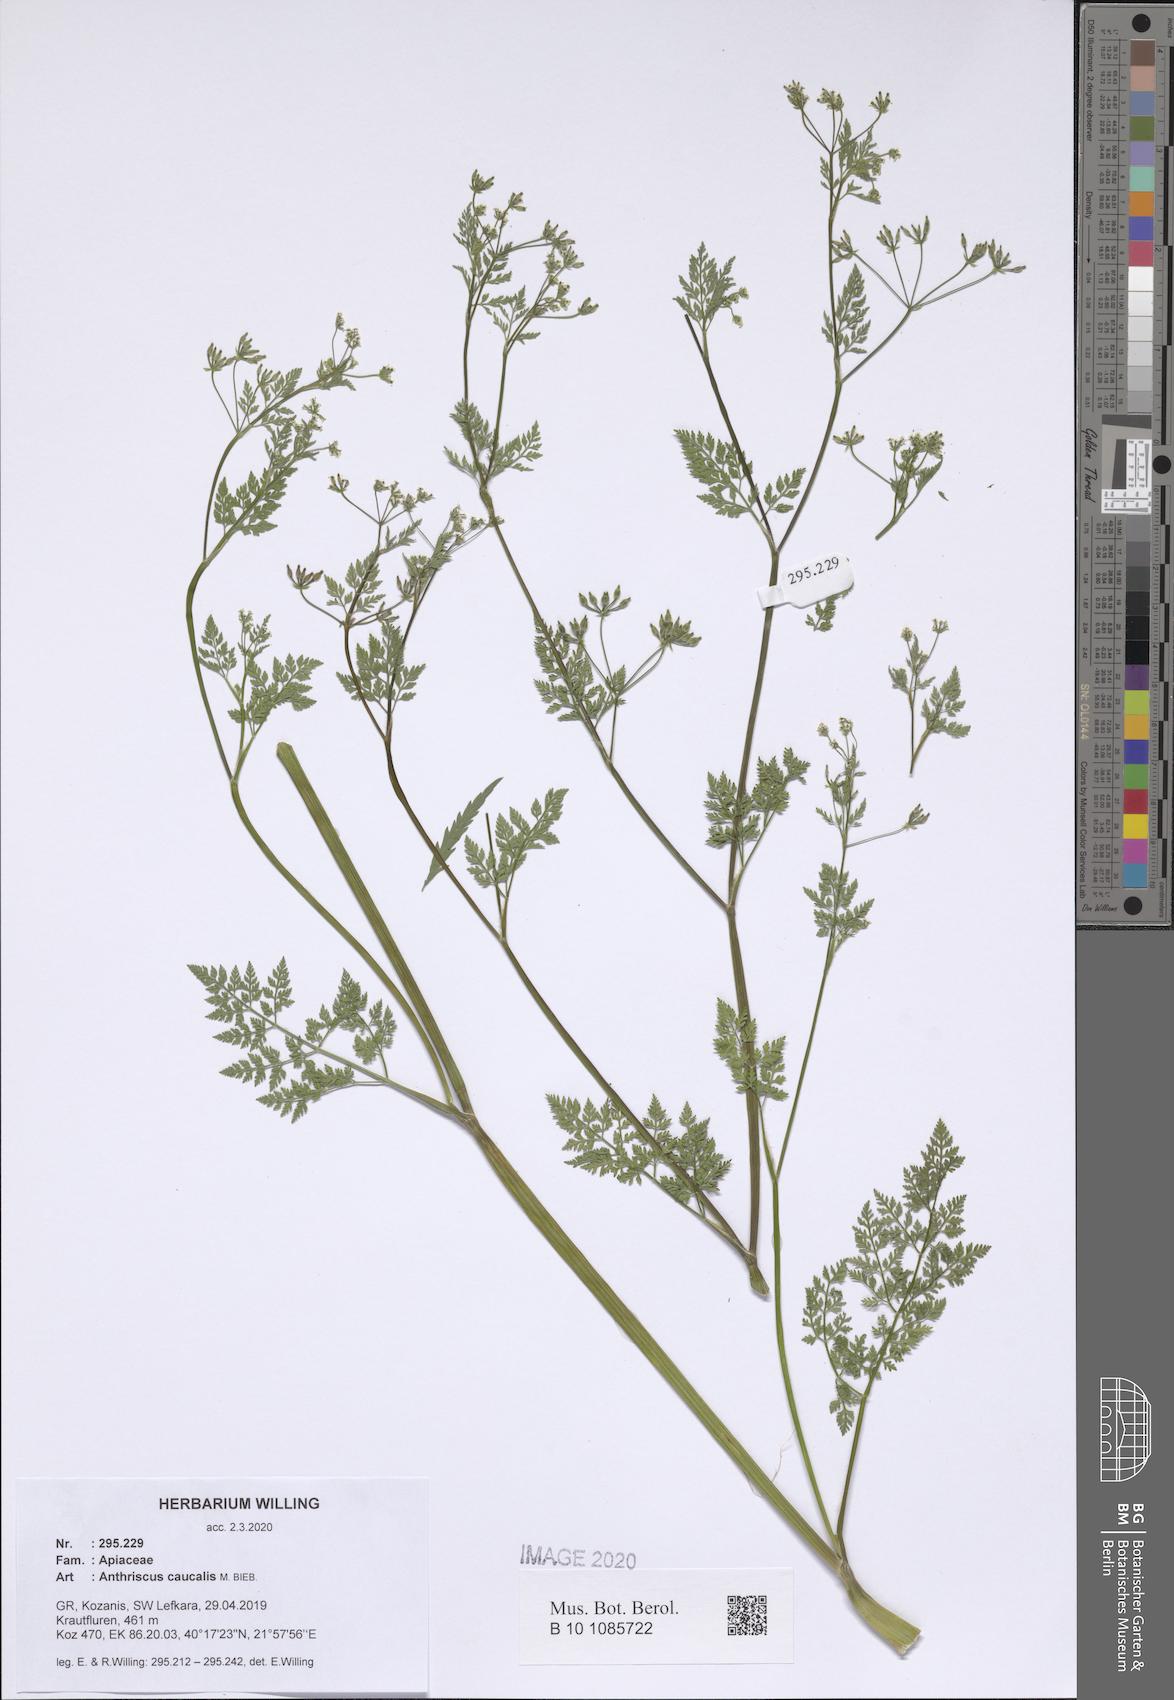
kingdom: Plantae
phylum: Tracheophyta
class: Magnoliopsida
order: Apiales
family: Apiaceae
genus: Anthriscus
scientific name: Anthriscus caucalis
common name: Bur chervil
